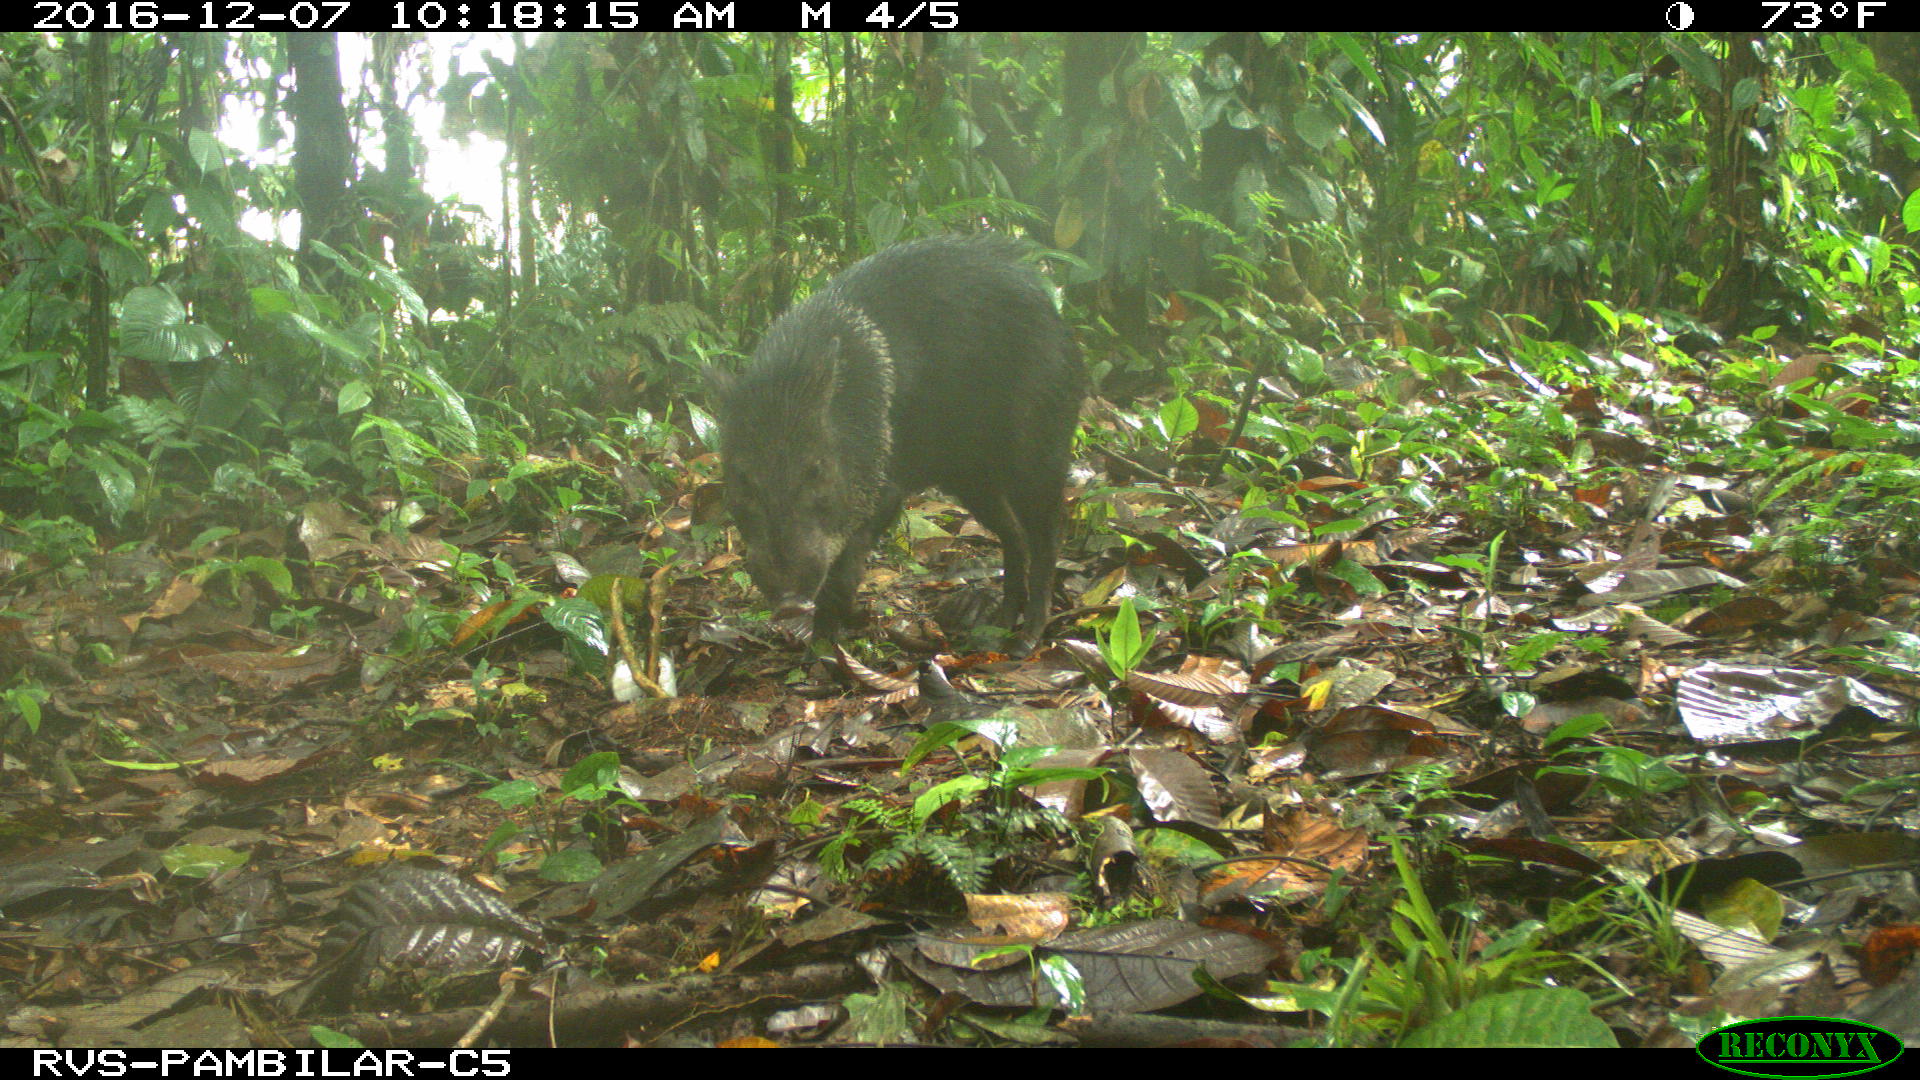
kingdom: Animalia
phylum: Chordata
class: Mammalia
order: Artiodactyla
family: Tayassuidae
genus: Pecari
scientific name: Pecari tajacu
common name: Collared peccary
